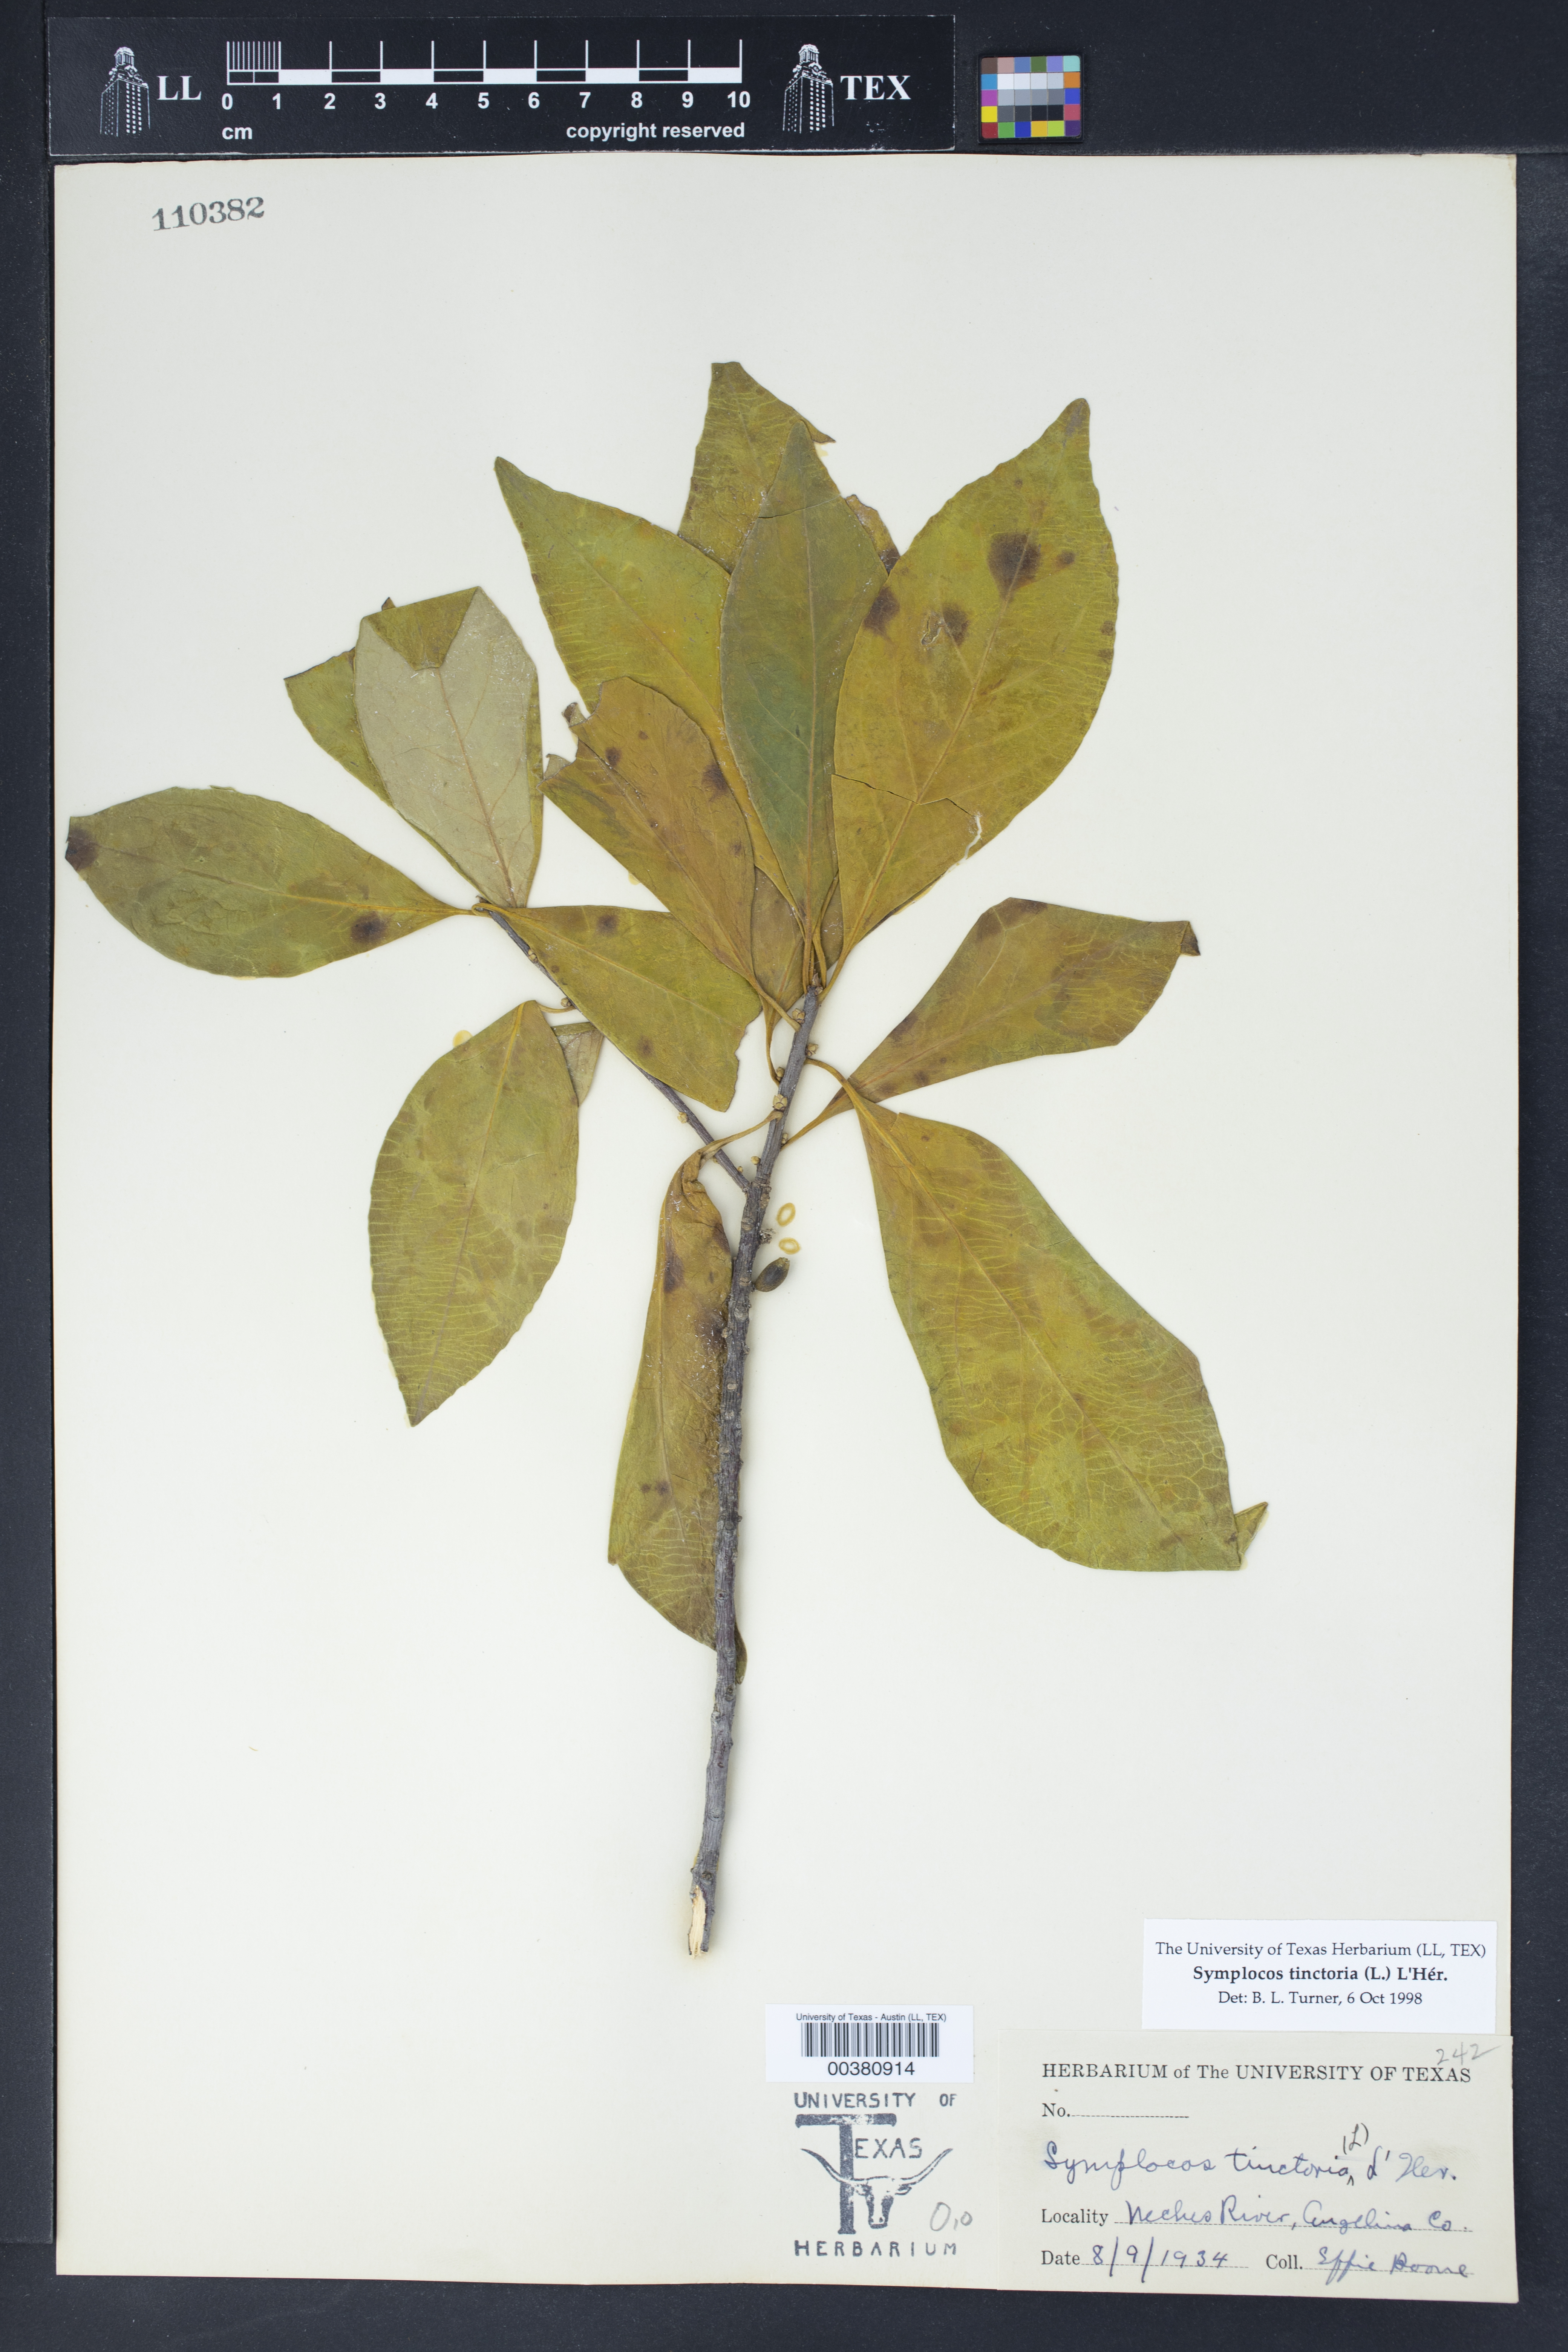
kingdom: Plantae
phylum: Tracheophyta
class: Magnoliopsida
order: Ericales
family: Symplocaceae
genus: Symplocos
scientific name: Symplocos tinctoria
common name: Horse-sugar
